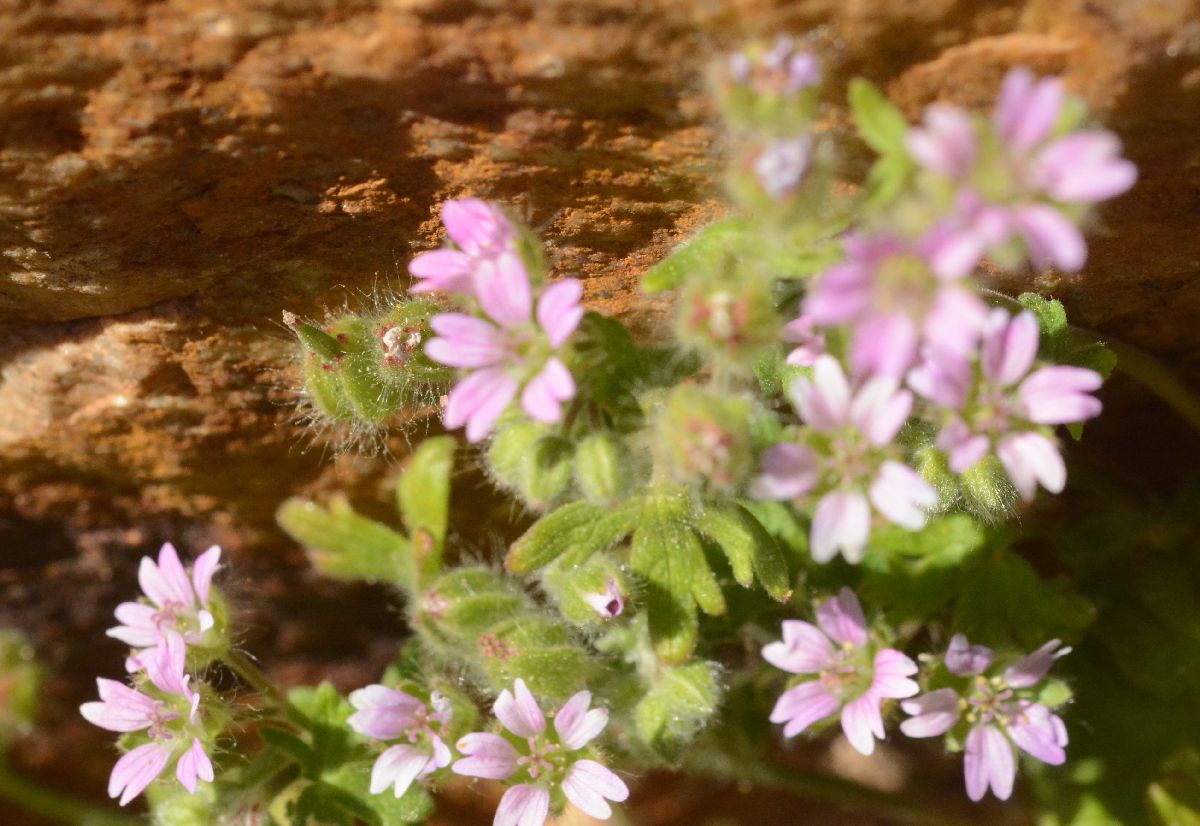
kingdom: Plantae
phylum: Tracheophyta
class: Magnoliopsida
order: Geraniales
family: Geraniaceae
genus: Geranium
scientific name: Geranium molle
